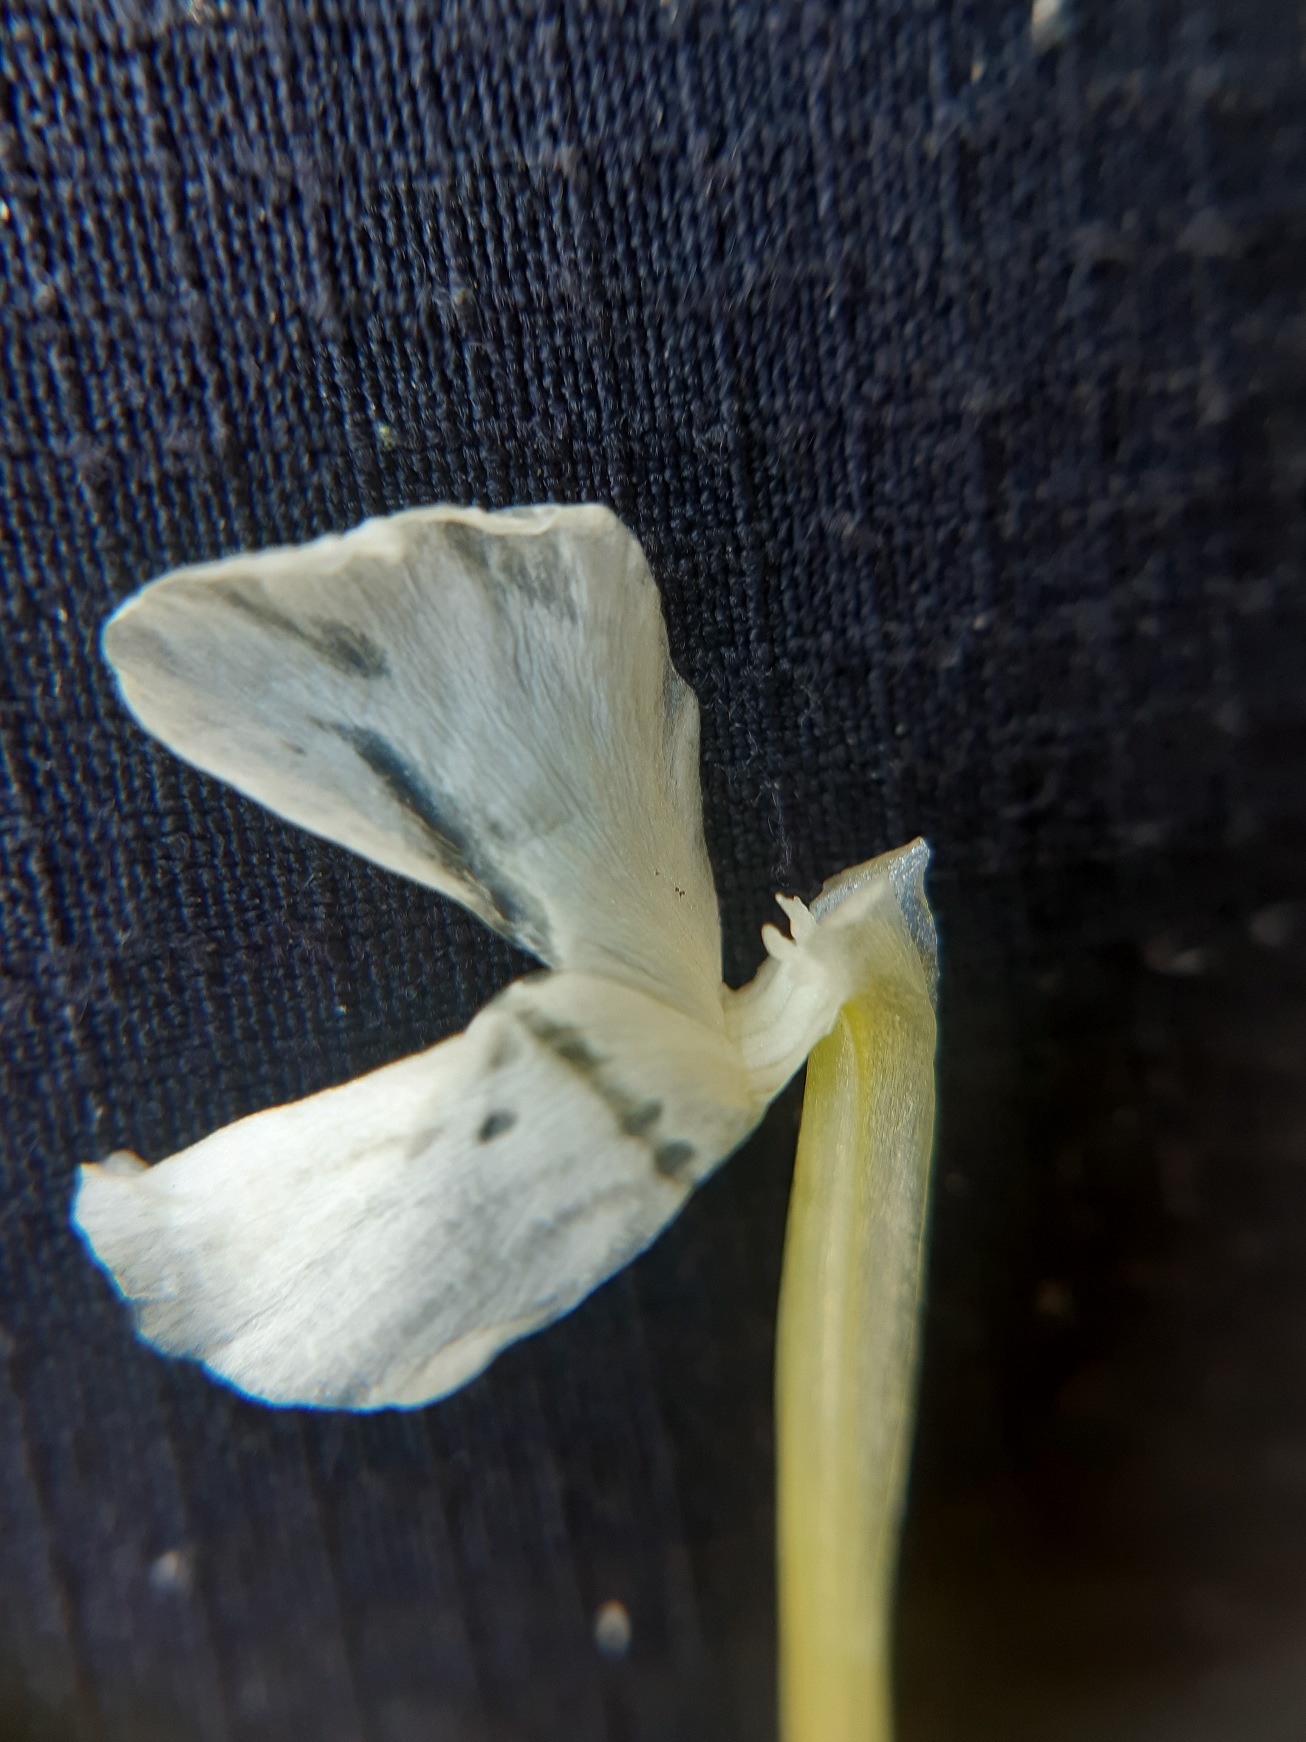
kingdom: Plantae
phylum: Tracheophyta
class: Magnoliopsida
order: Caryophyllales
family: Caryophyllaceae
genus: Silene
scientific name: Silene latifolia
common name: Aftenpragtstjerne
